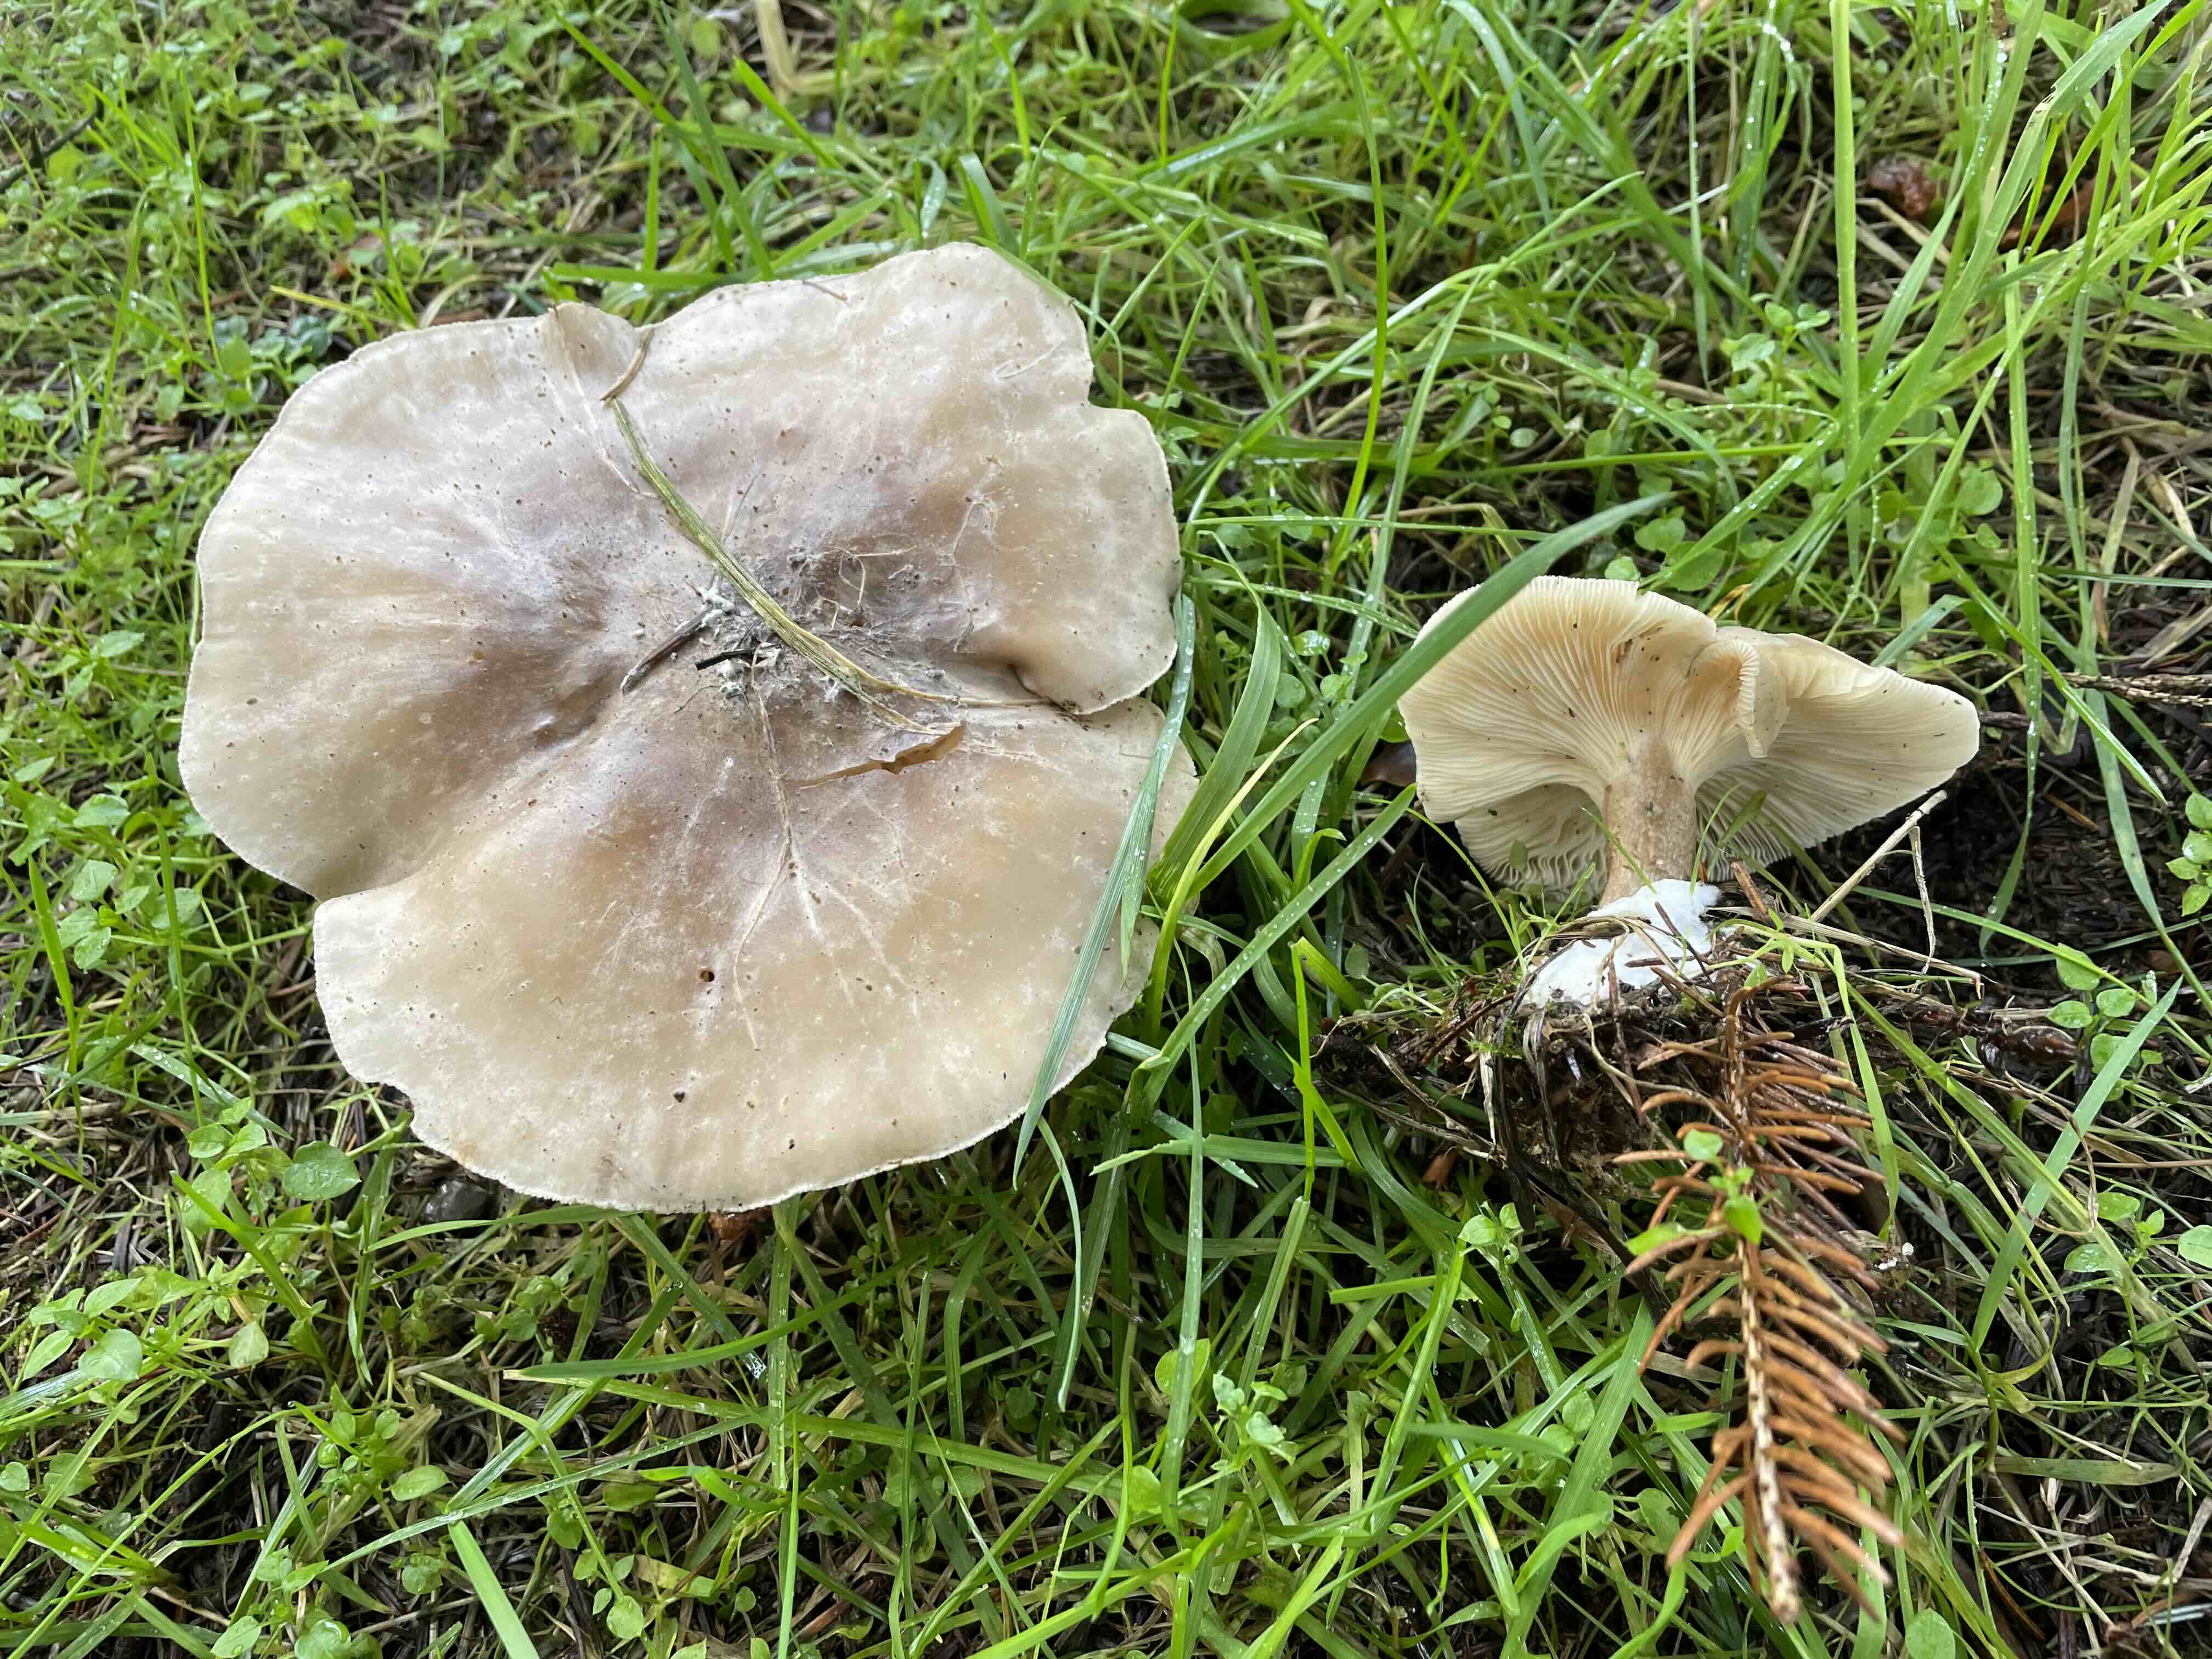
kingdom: Fungi
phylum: Basidiomycota
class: Agaricomycetes
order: Agaricales
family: Tricholomataceae
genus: Clitocybe
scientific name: Clitocybe nebularis
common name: tåge-tragthat
